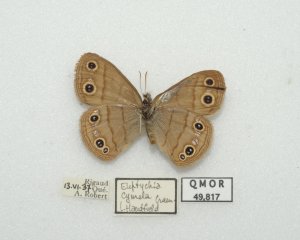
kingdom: Animalia
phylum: Arthropoda
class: Insecta
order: Lepidoptera
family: Nymphalidae
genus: Euptychia
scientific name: Euptychia cymela
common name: Little Wood Satyr
